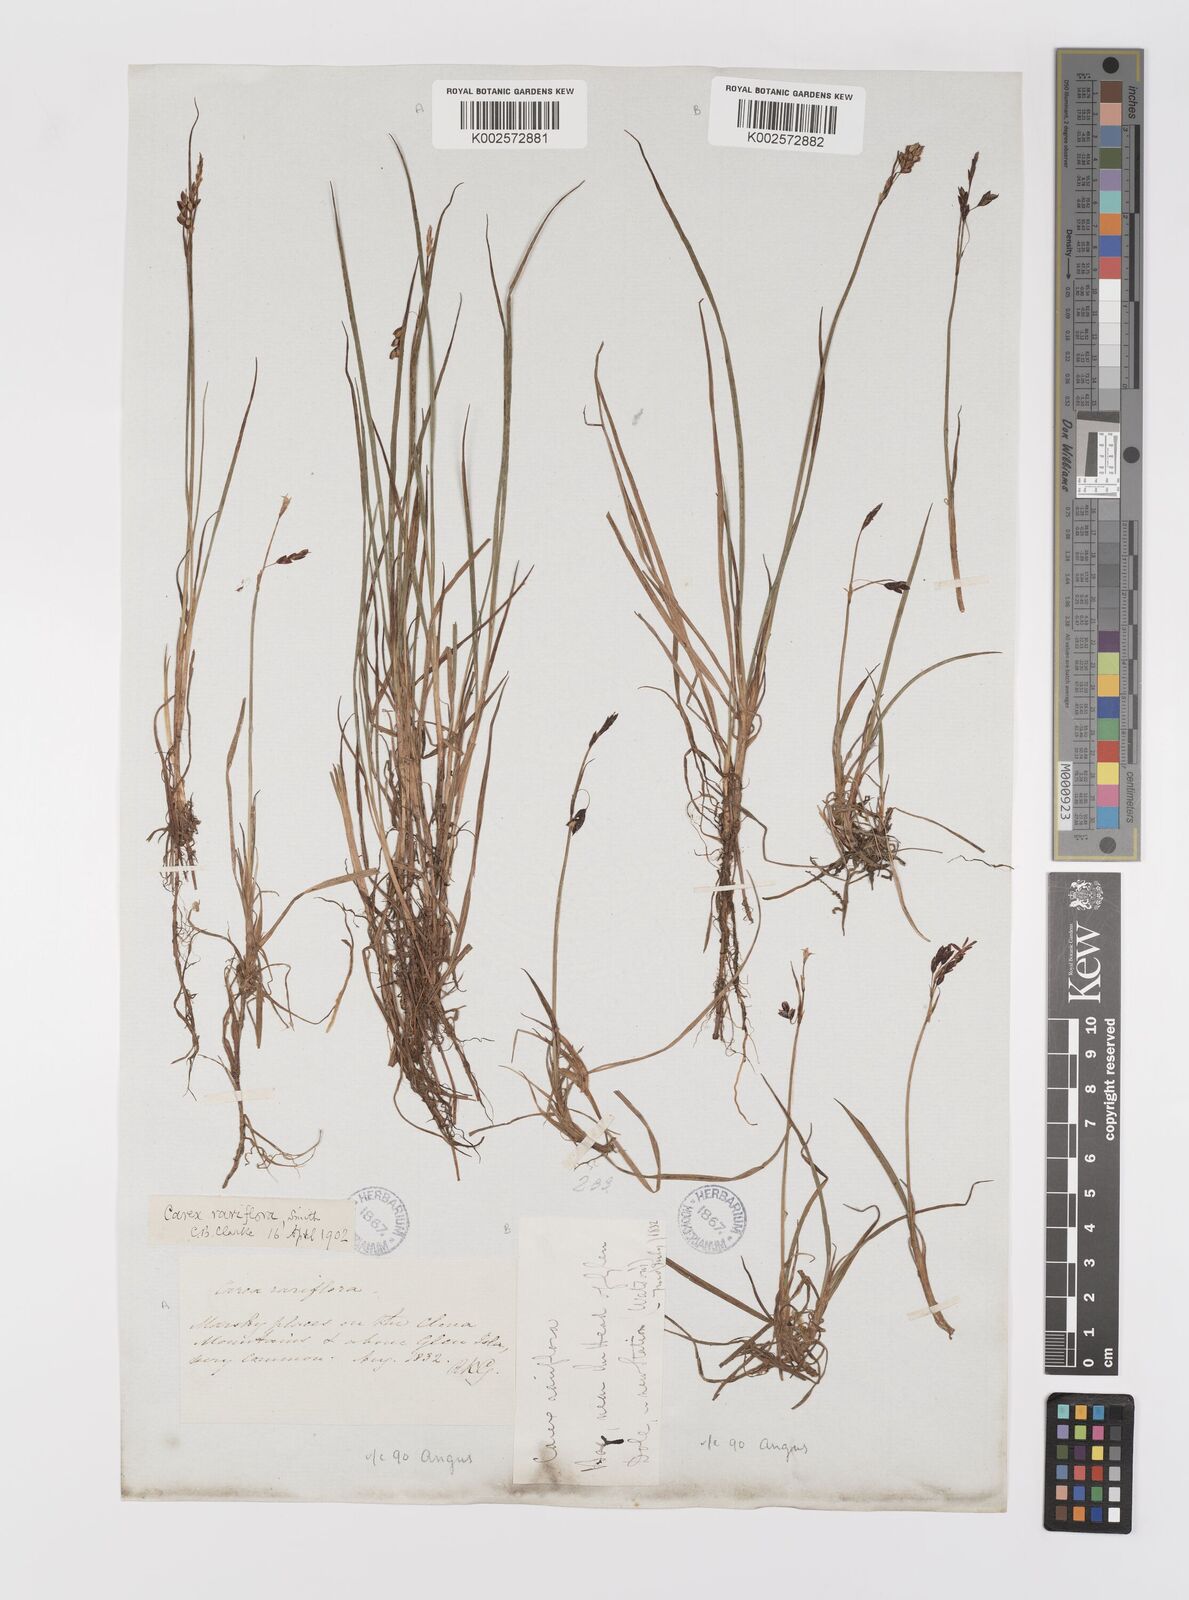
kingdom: Plantae
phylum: Tracheophyta
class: Liliopsida
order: Poales
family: Cyperaceae
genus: Carex
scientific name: Carex rariflora
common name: Loose-flowered alpine sedge
